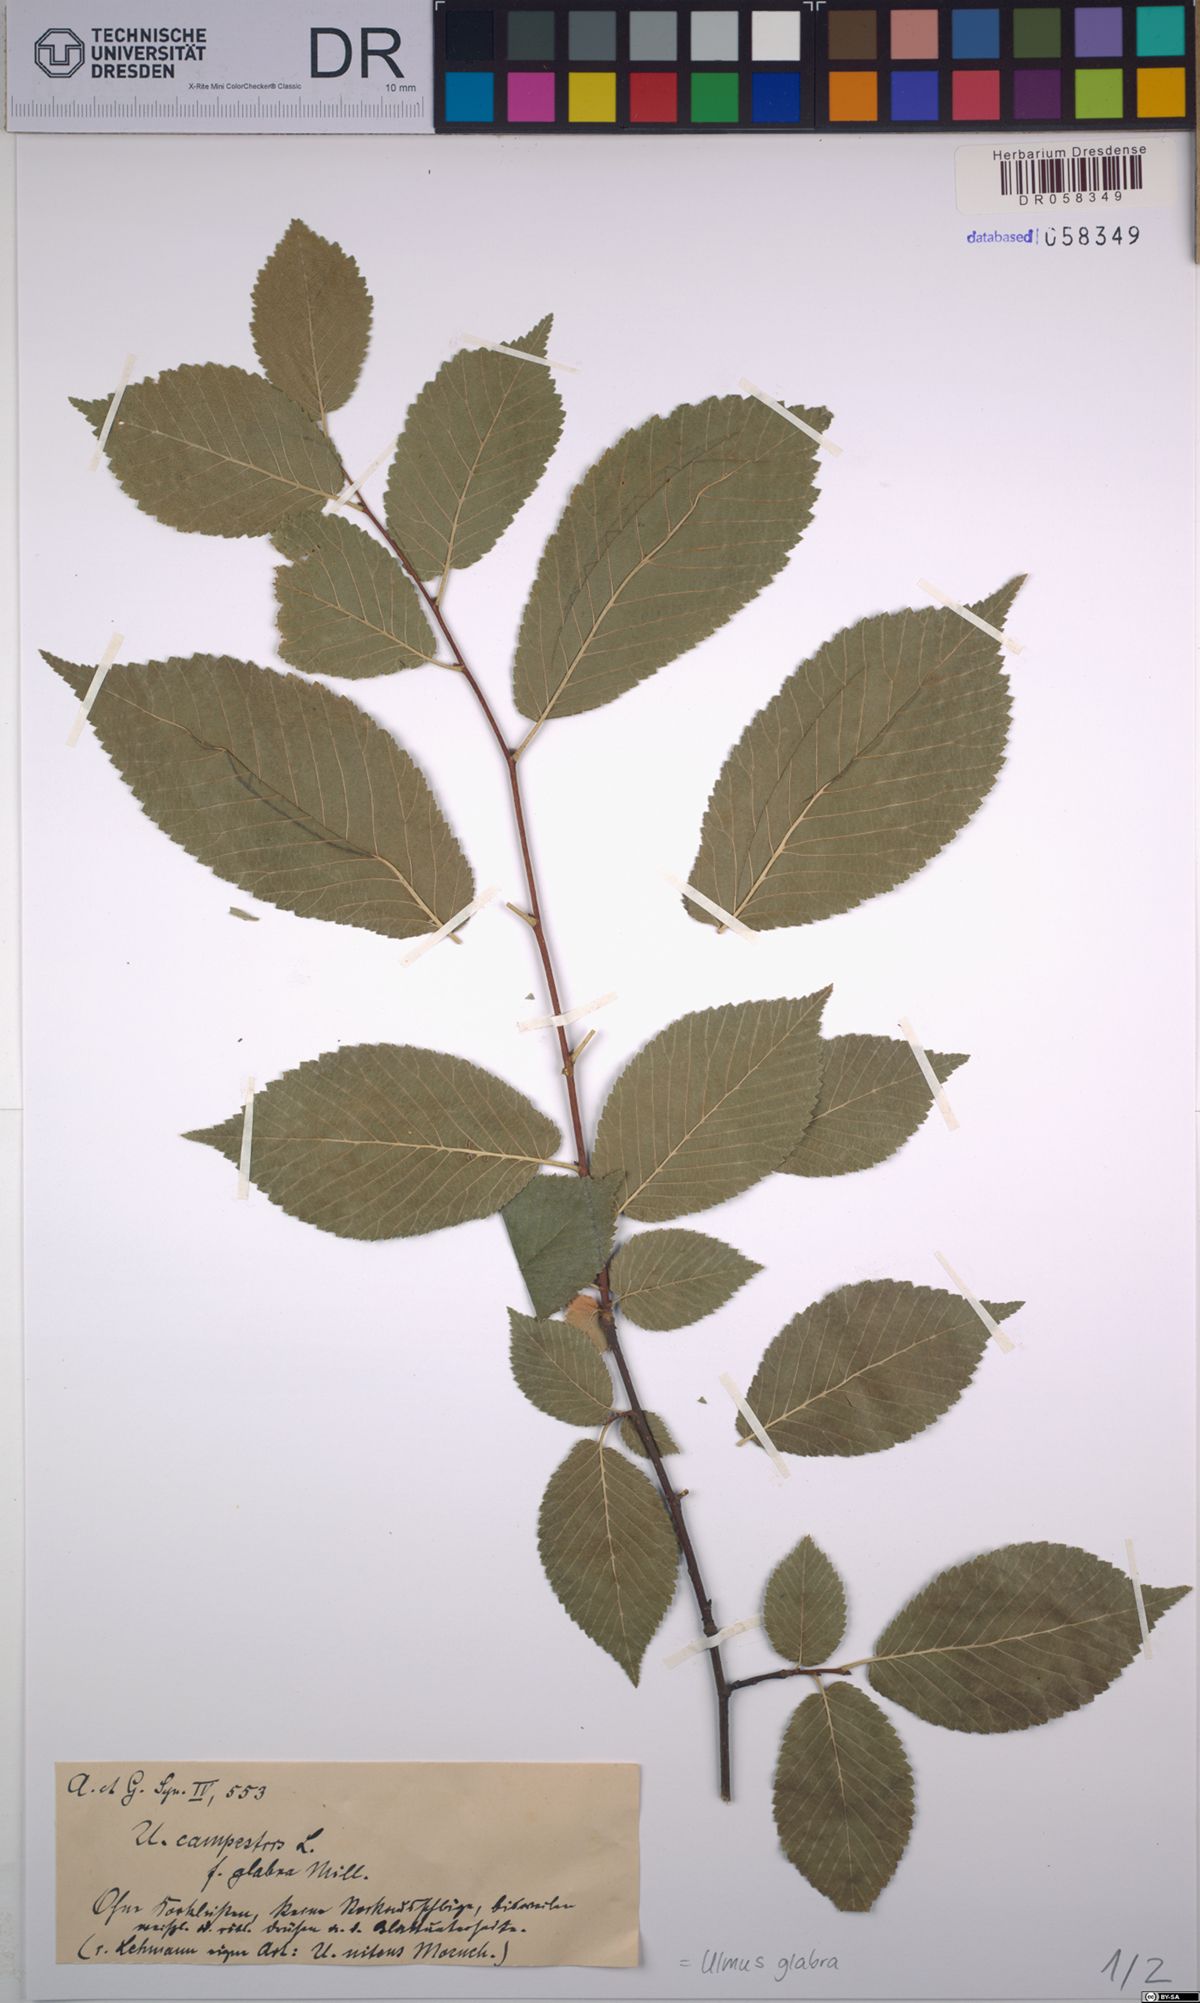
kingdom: Plantae
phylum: Tracheophyta
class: Magnoliopsida
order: Rosales
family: Ulmaceae
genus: Ulmus
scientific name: Ulmus glabra
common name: Wych elm
